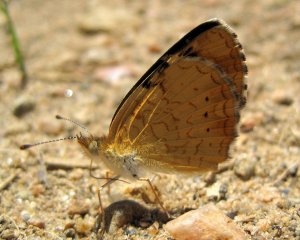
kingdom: Animalia
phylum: Arthropoda
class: Insecta
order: Lepidoptera
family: Nymphalidae
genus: Phyciodes
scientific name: Phyciodes batesii
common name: Tawny Crescent
